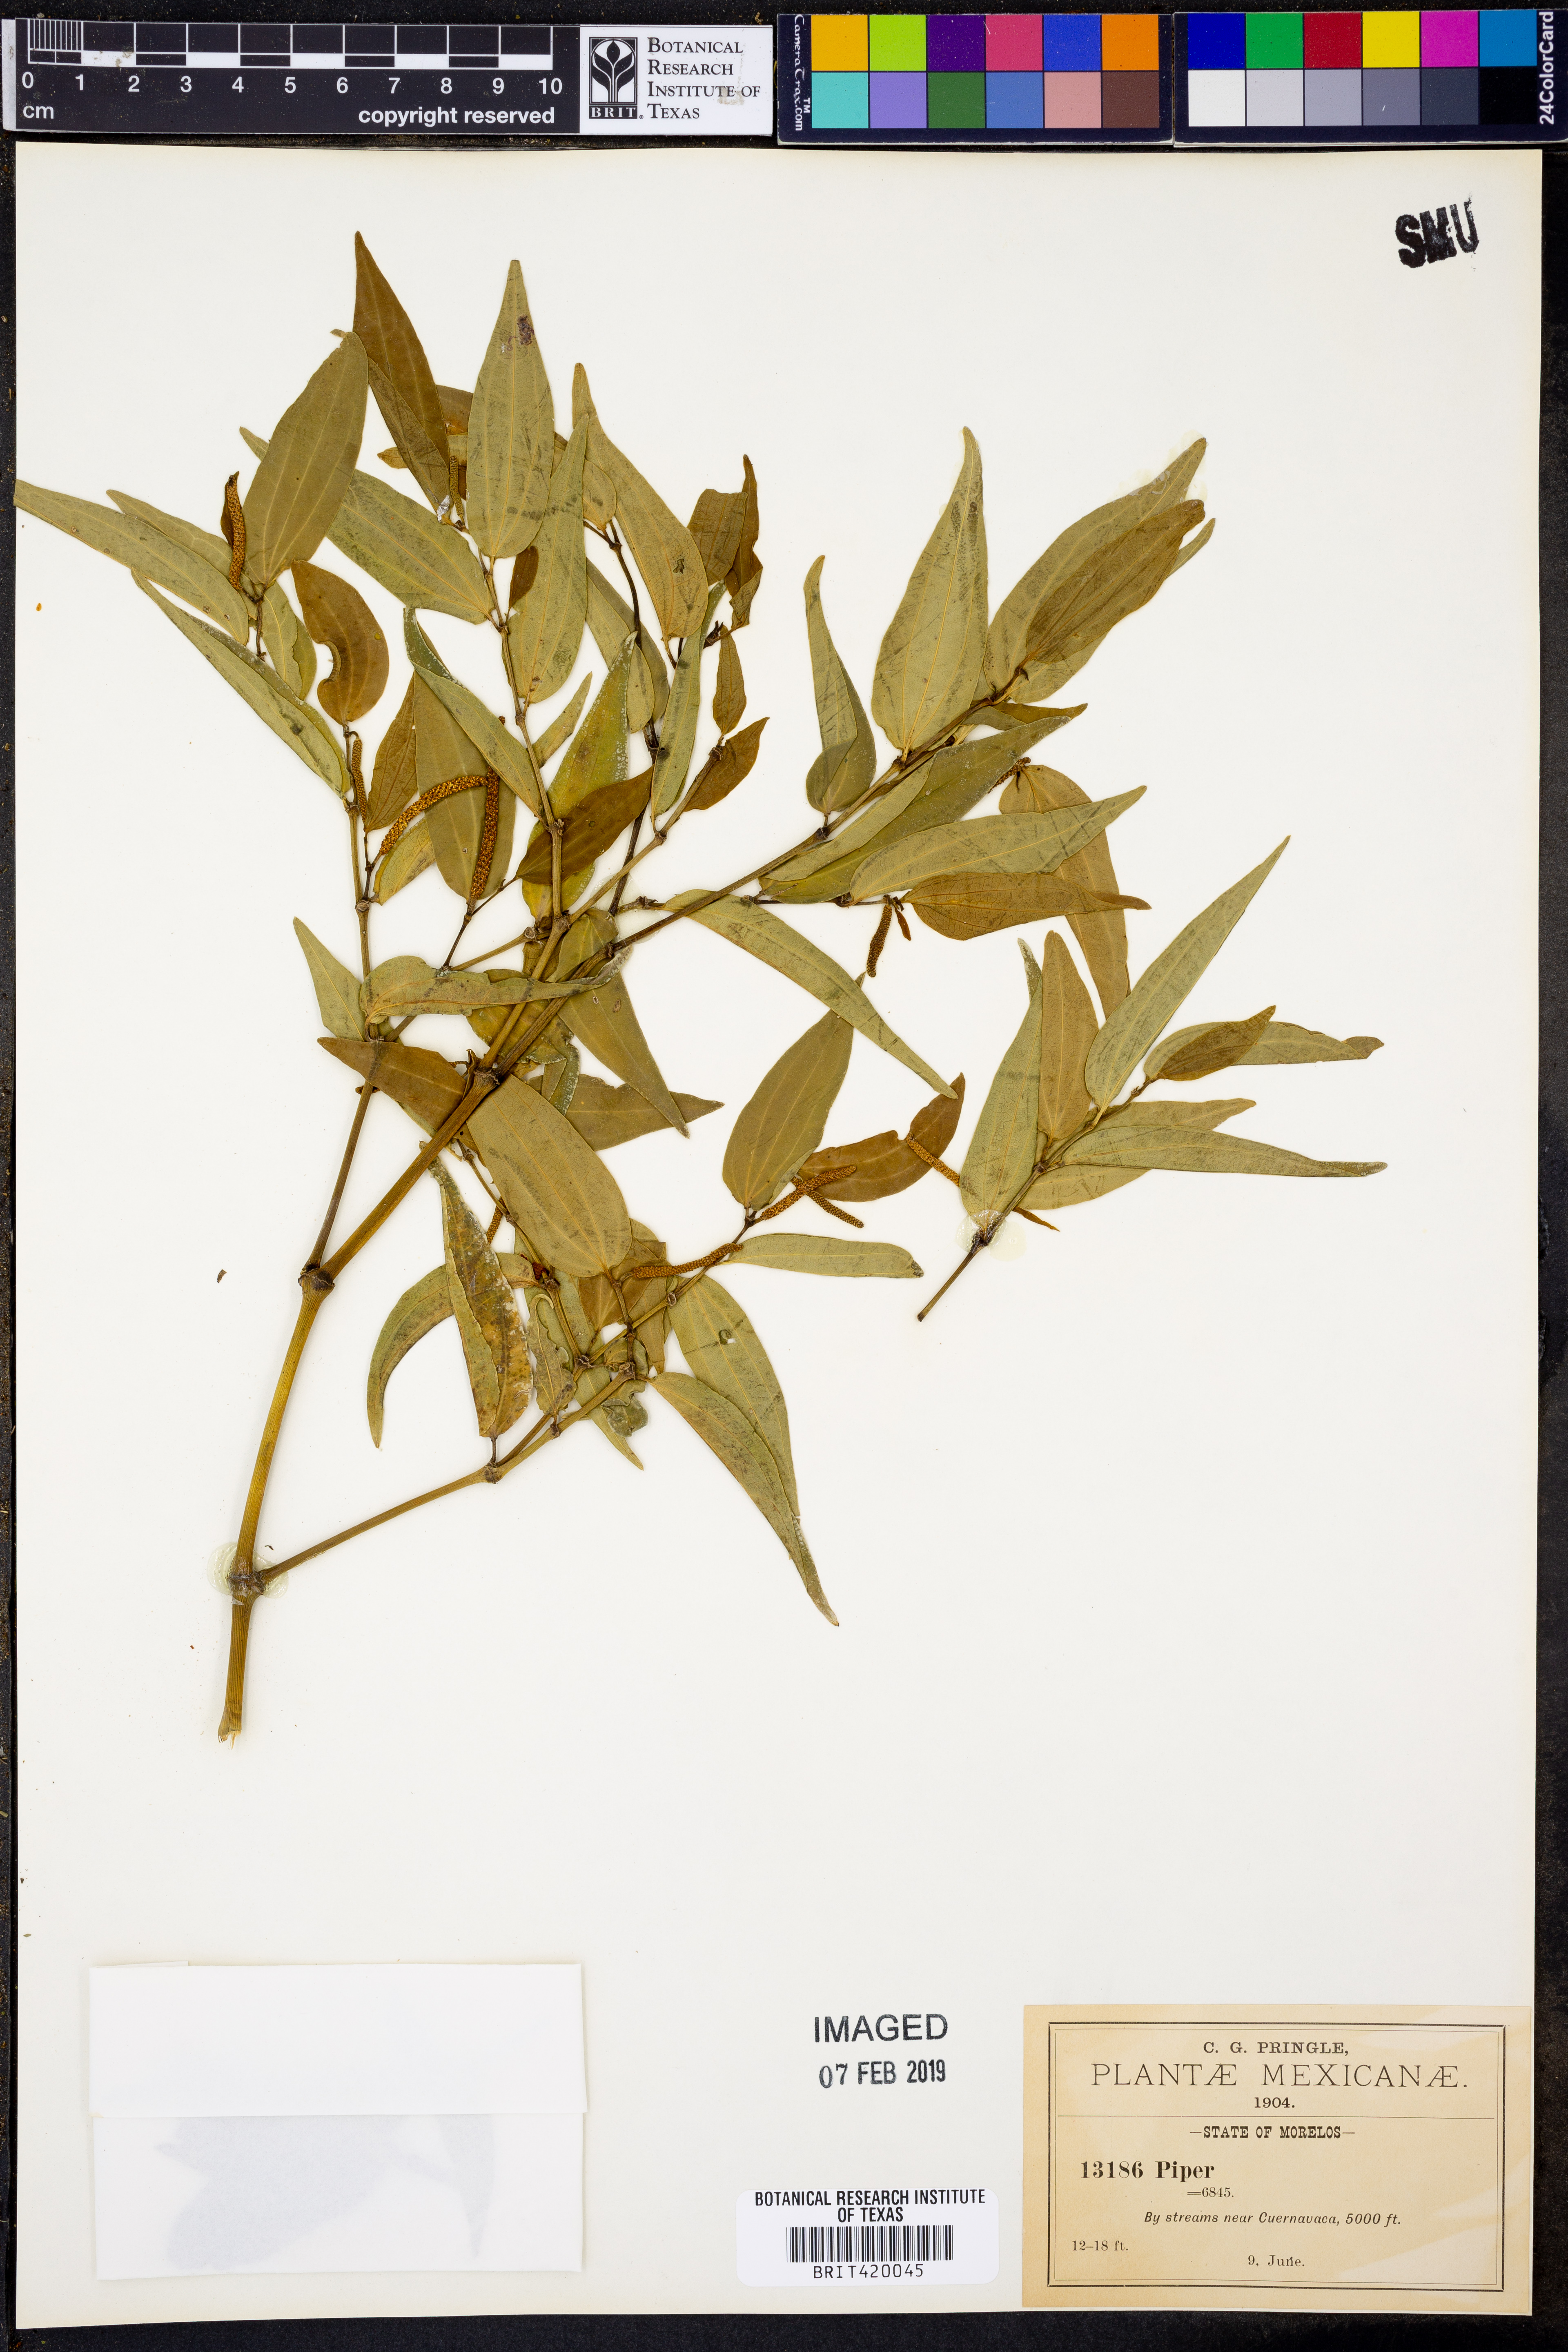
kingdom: Plantae
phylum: Tracheophyta
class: Magnoliopsida
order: Piperales
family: Piperaceae
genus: Piper
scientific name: Piper
